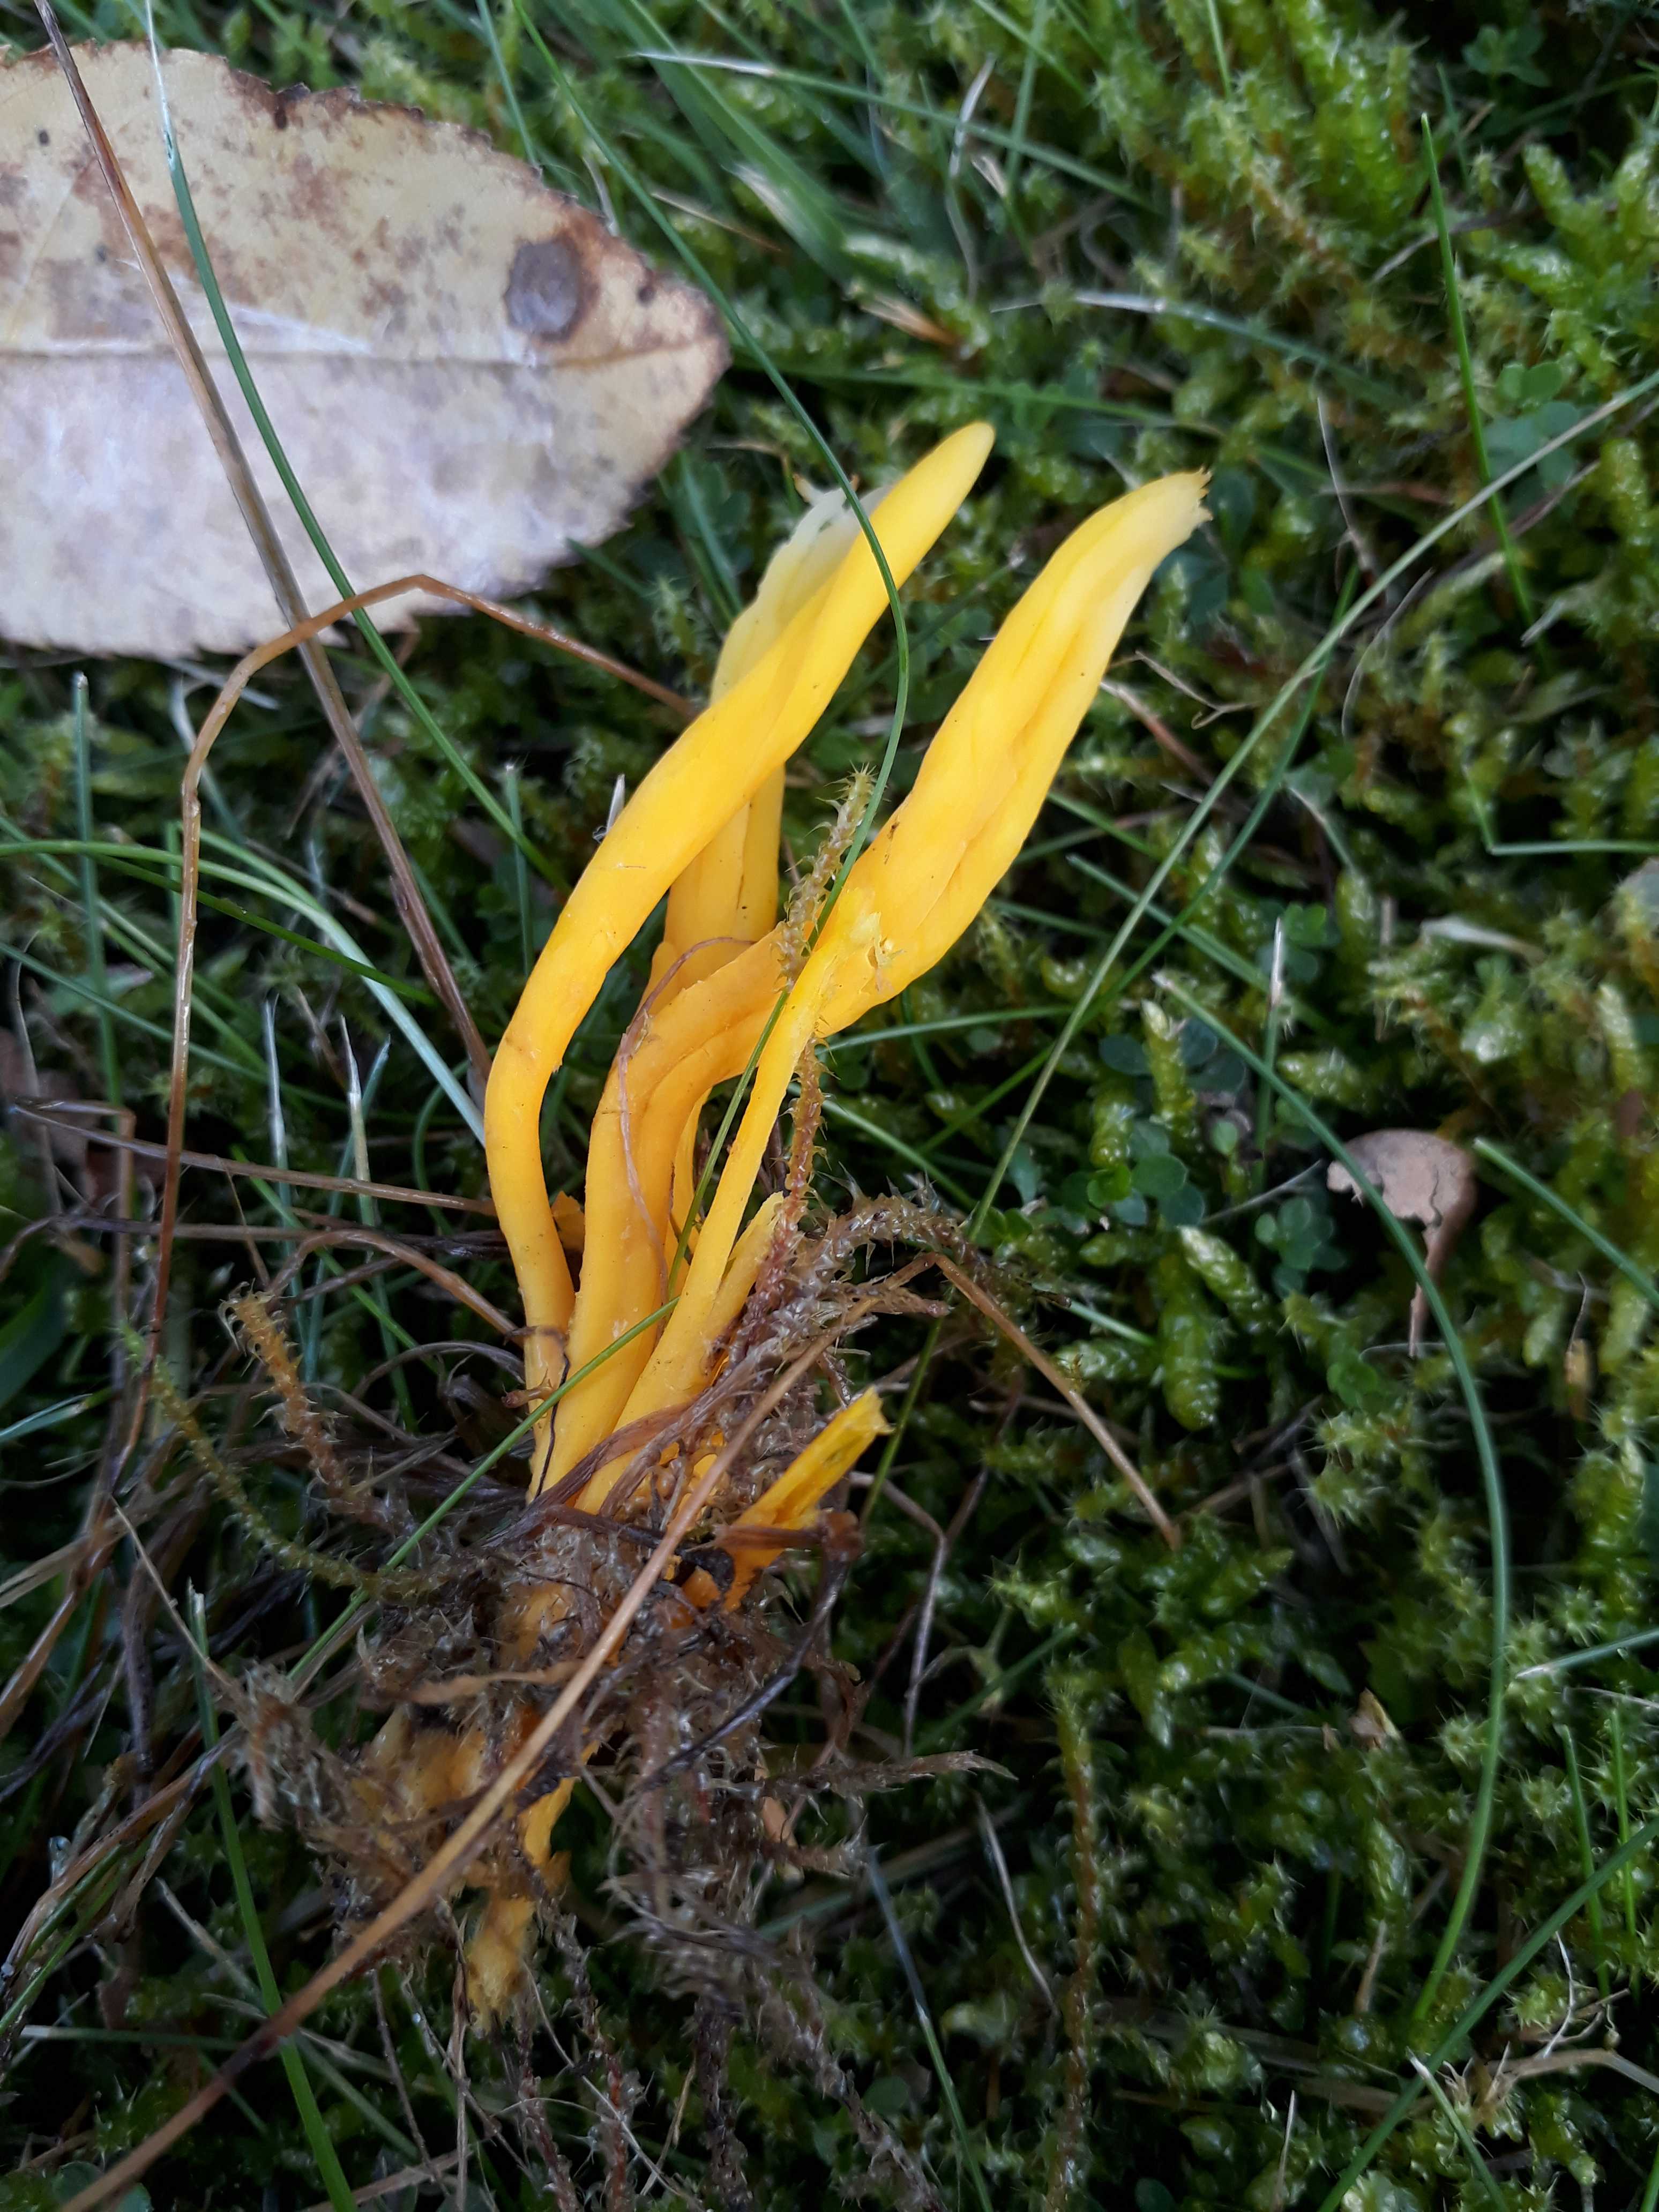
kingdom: Fungi
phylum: Basidiomycota
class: Agaricomycetes
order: Agaricales
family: Clavariaceae
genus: Clavulinopsis
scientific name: Clavulinopsis
